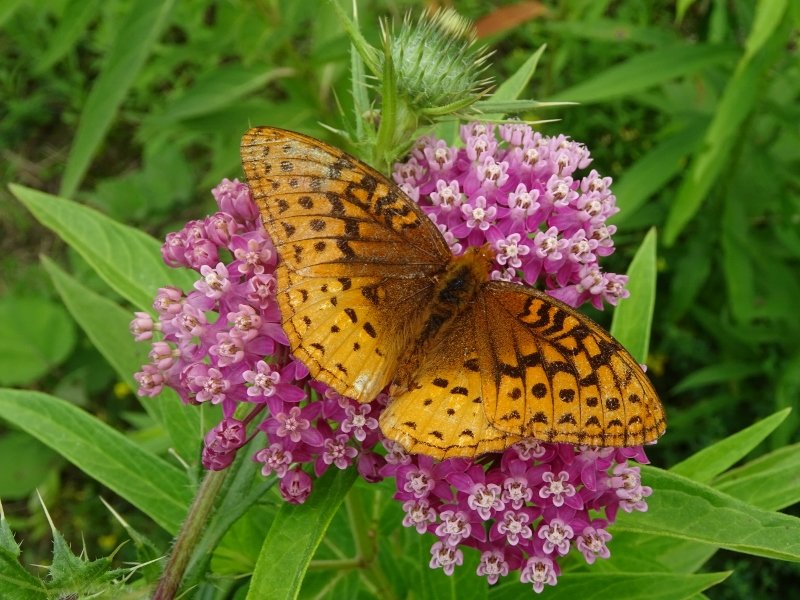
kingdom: Animalia
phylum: Arthropoda
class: Insecta
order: Lepidoptera
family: Nymphalidae
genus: Speyeria
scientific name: Speyeria cybele
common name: Great Spangled Fritillary
